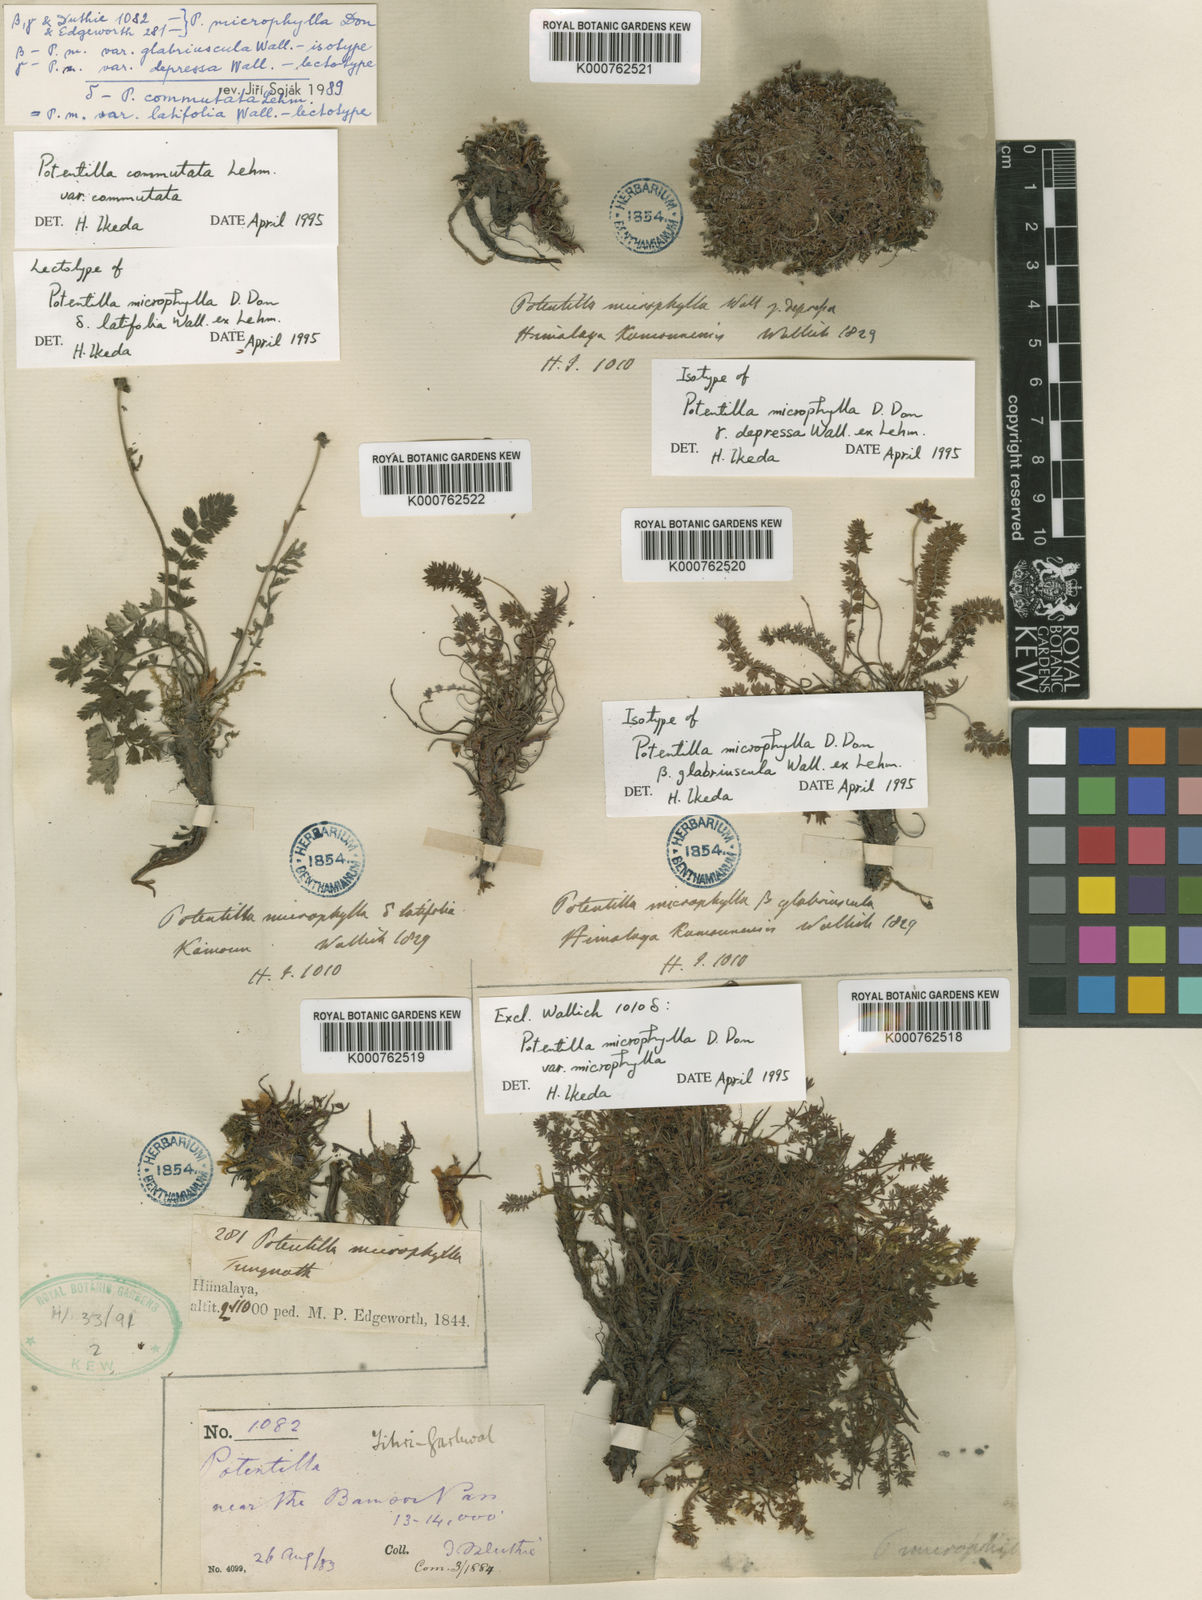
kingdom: Plantae
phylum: Tracheophyta
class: Magnoliopsida
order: Rosales
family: Rosaceae
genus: Argentina
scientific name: Argentina microphylla
